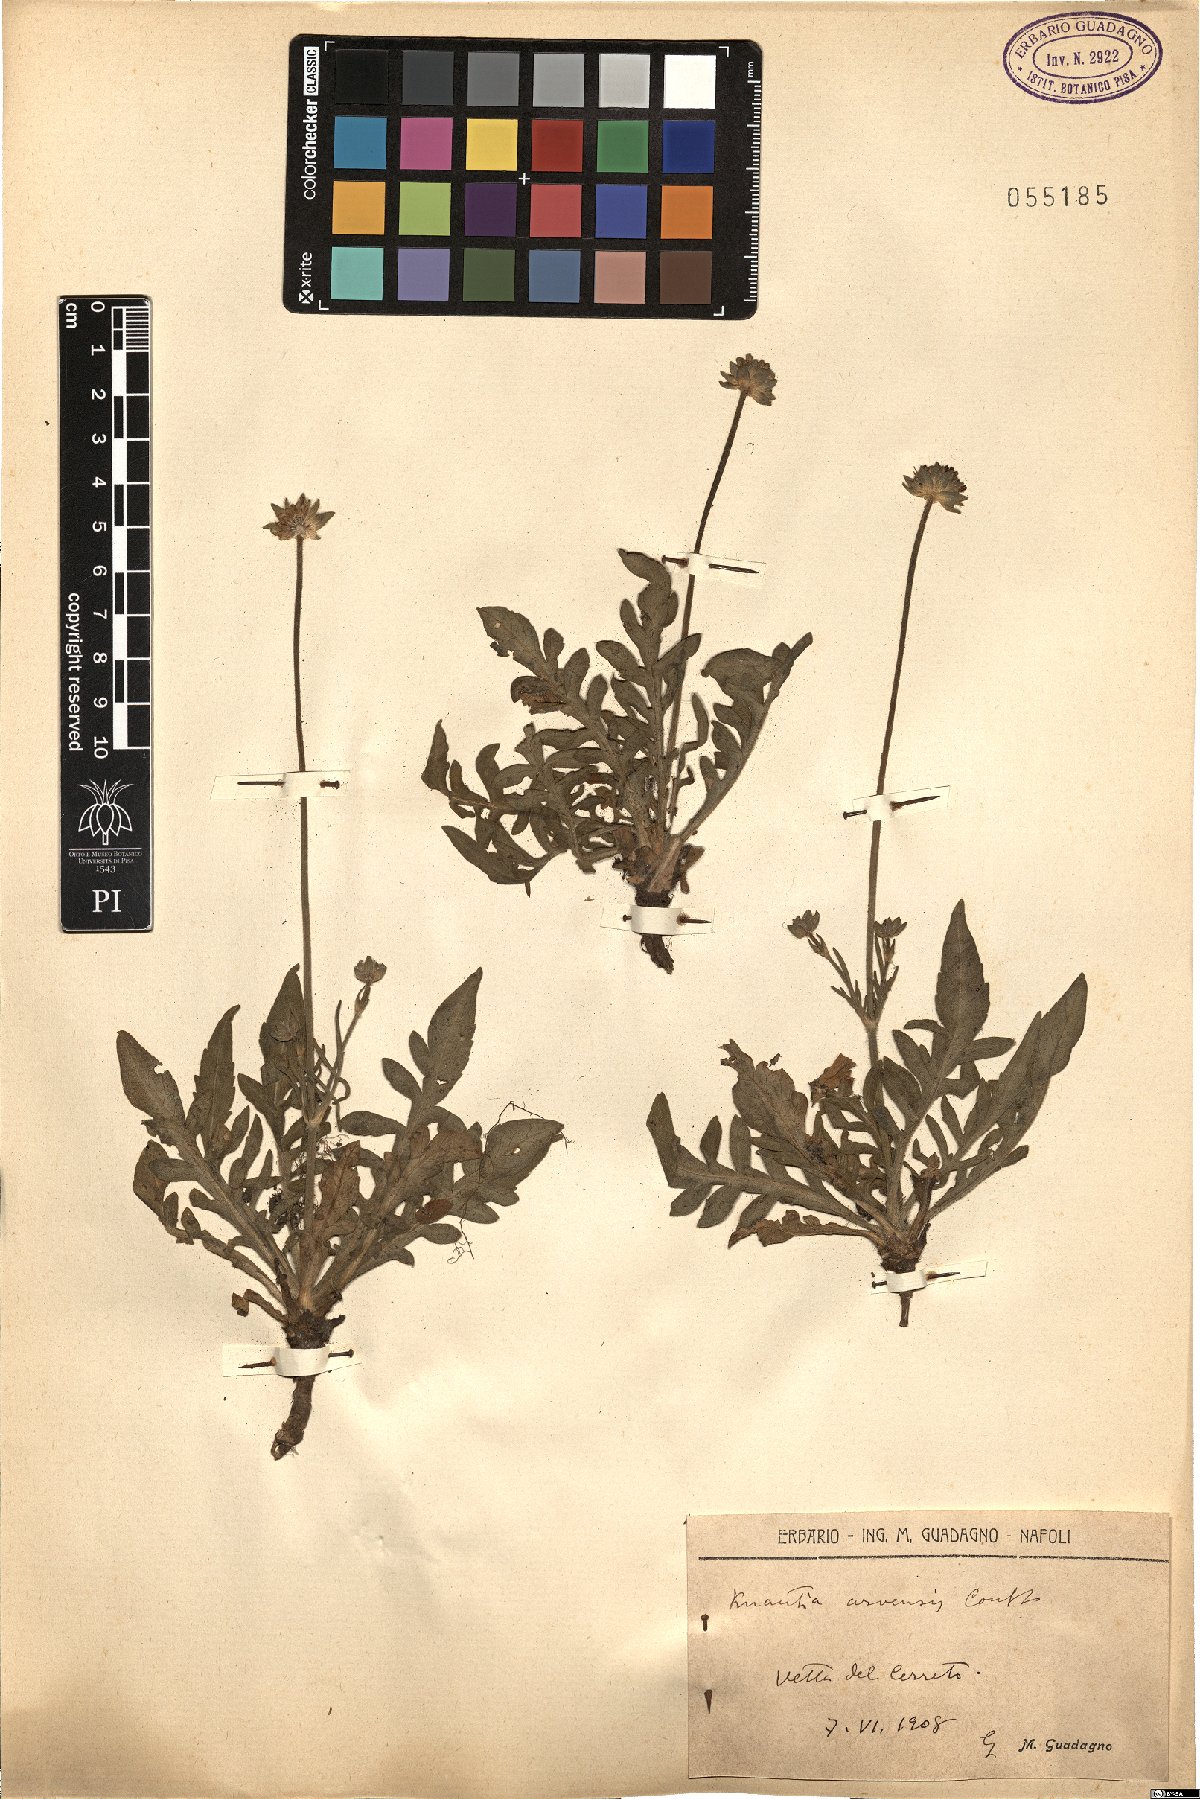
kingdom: Plantae
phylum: Tracheophyta
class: Magnoliopsida
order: Dipsacales
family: Caprifoliaceae
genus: Knautia
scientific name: Knautia arvensis
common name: Field scabiosa
